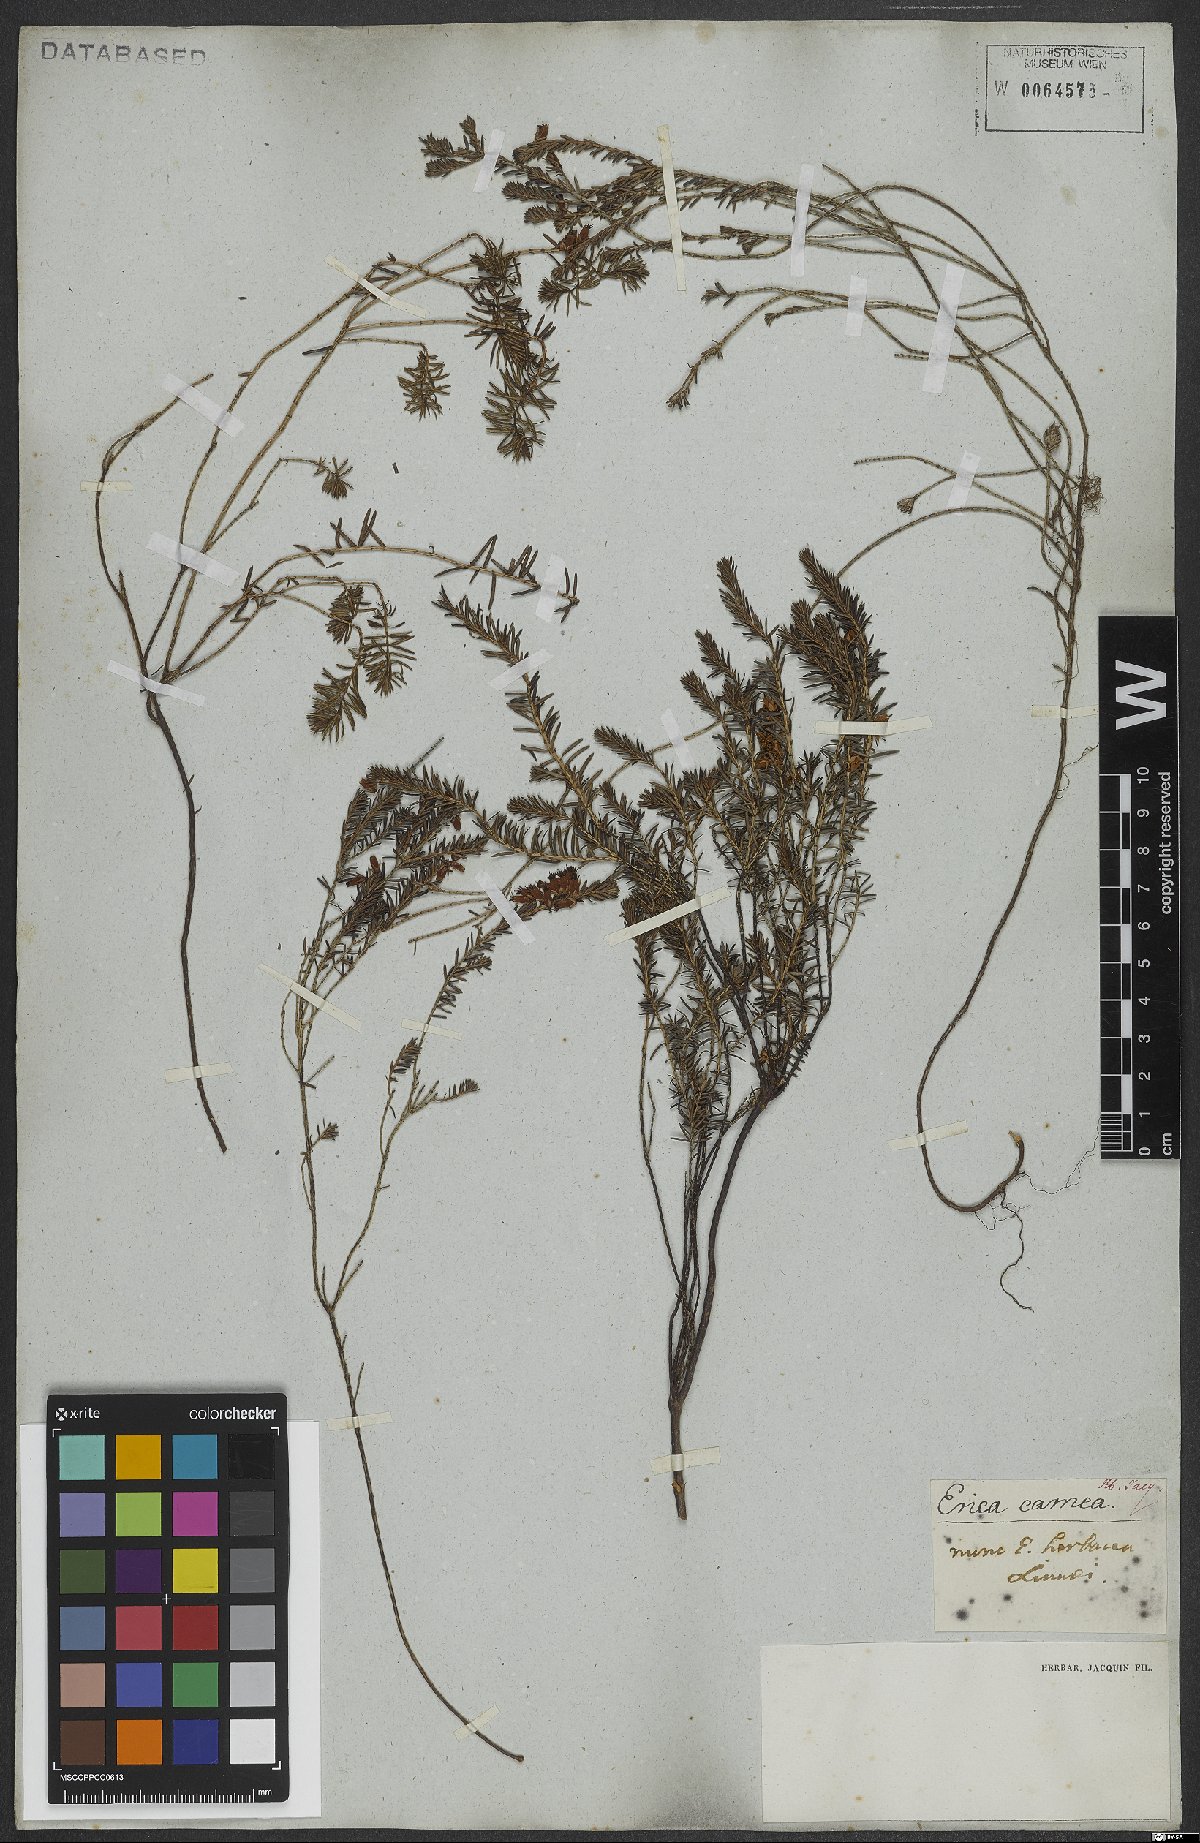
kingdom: Plantae
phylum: Tracheophyta
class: Magnoliopsida
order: Ericales
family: Ericaceae
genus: Erica
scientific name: Erica carnea
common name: Winter heath
